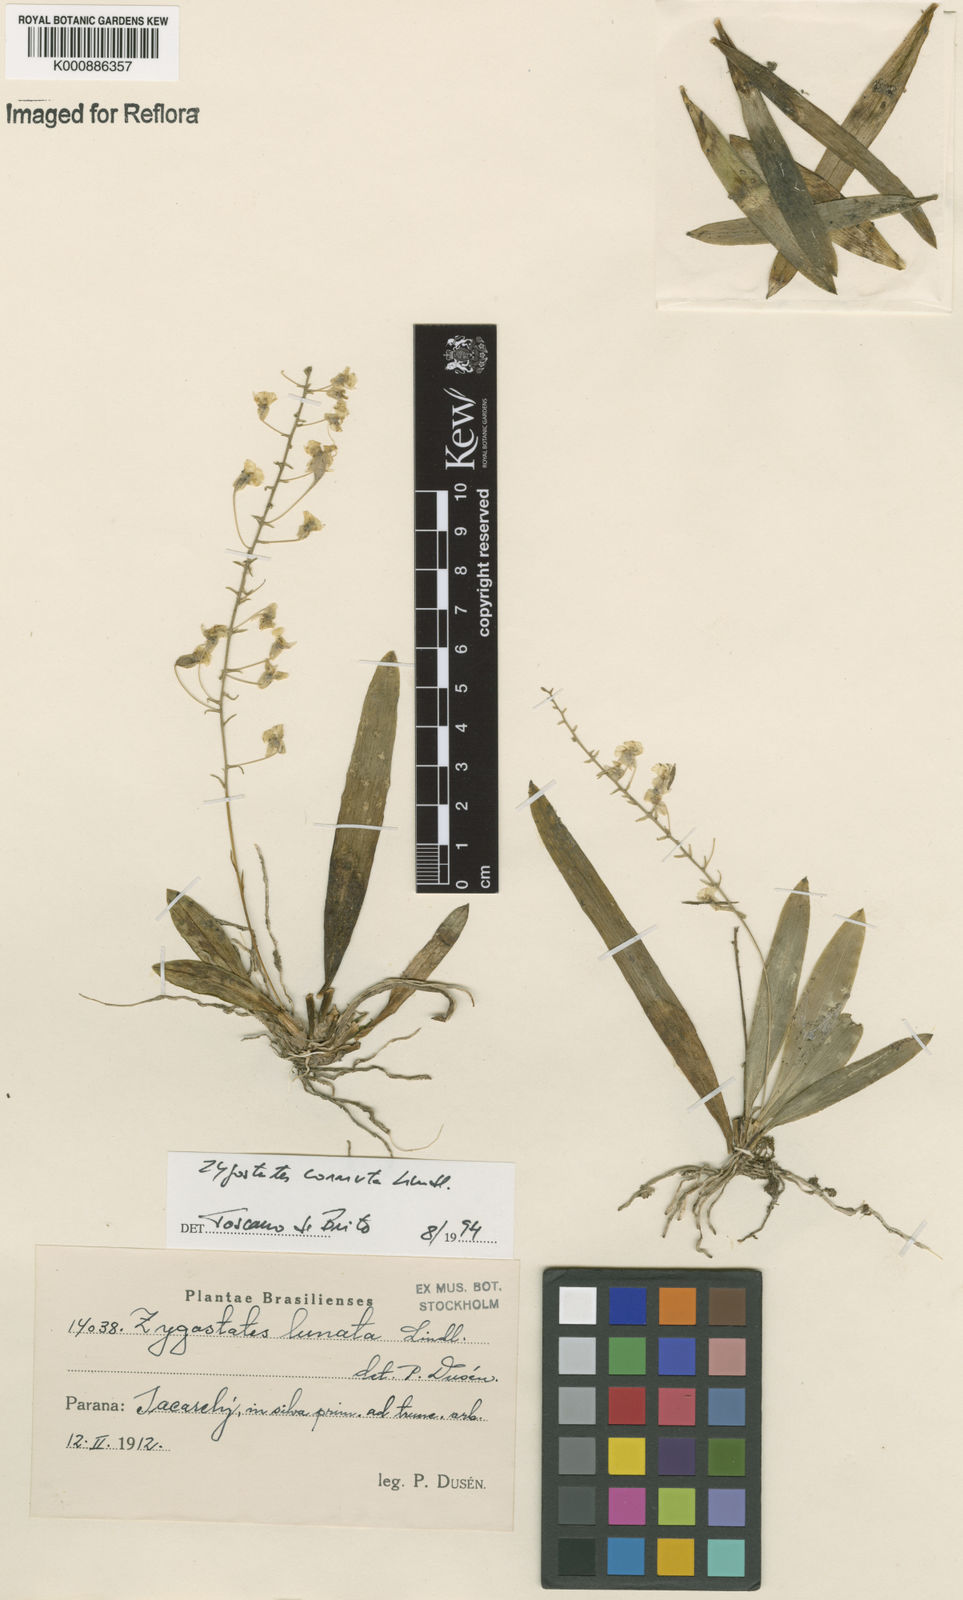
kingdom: Plantae
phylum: Tracheophyta
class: Liliopsida
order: Asparagales
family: Orchidaceae
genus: Zygostates
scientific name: Zygostates lunata
